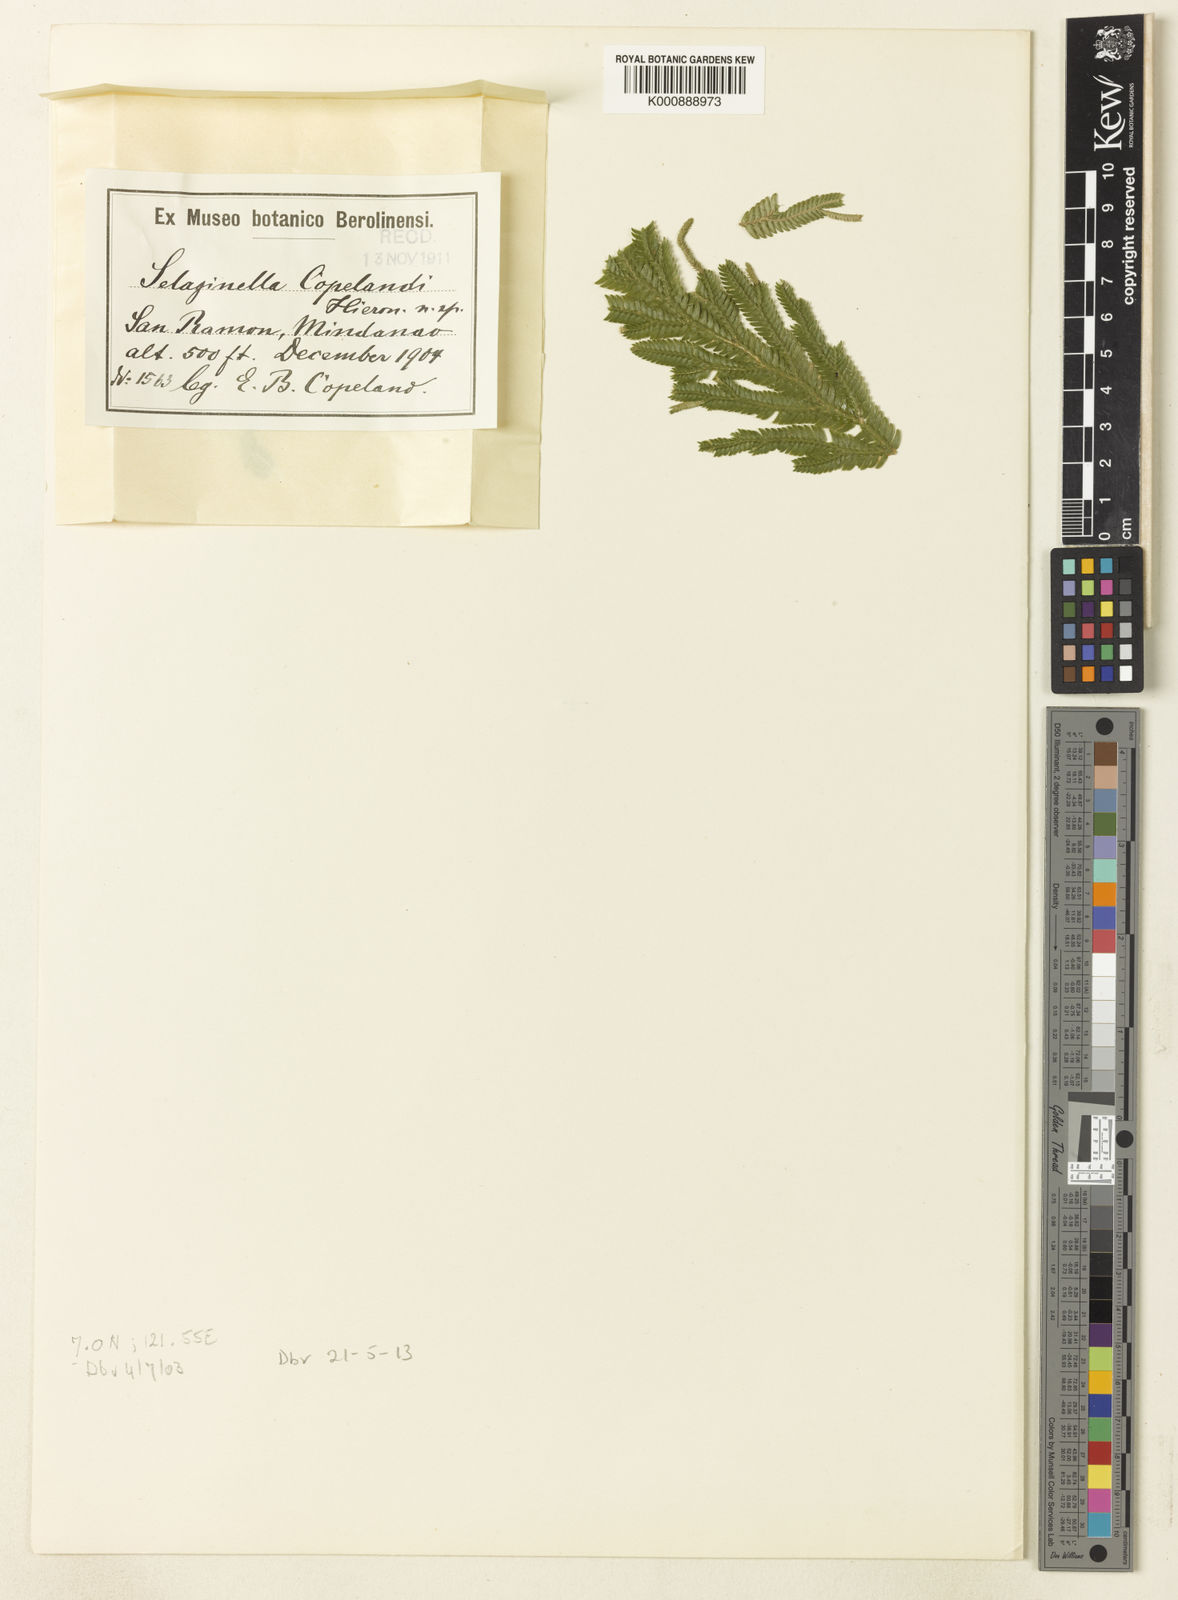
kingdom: Plantae
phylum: Tracheophyta
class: Lycopodiopsida
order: Selaginellales
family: Selaginellaceae
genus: Selaginella
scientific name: Selaginella
